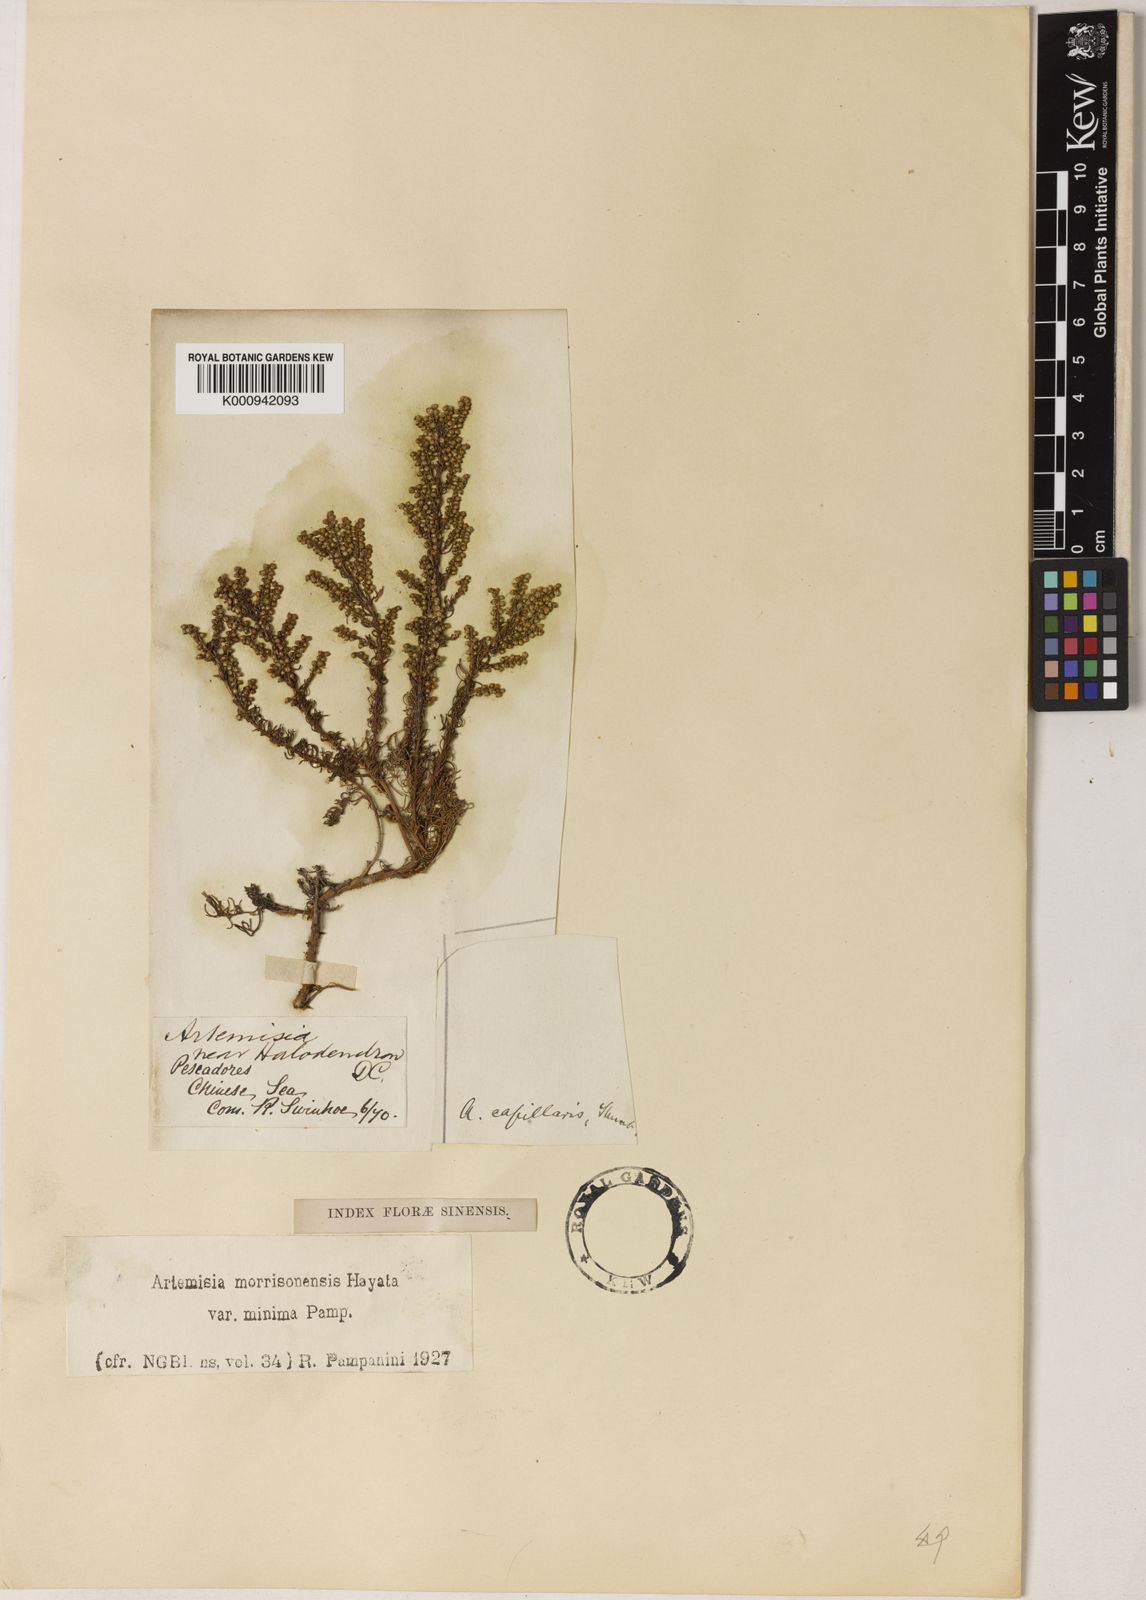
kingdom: Plantae
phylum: Tracheophyta
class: Magnoliopsida
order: Asterales
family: Asteraceae
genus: Artemisia
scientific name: Artemisia japonica
